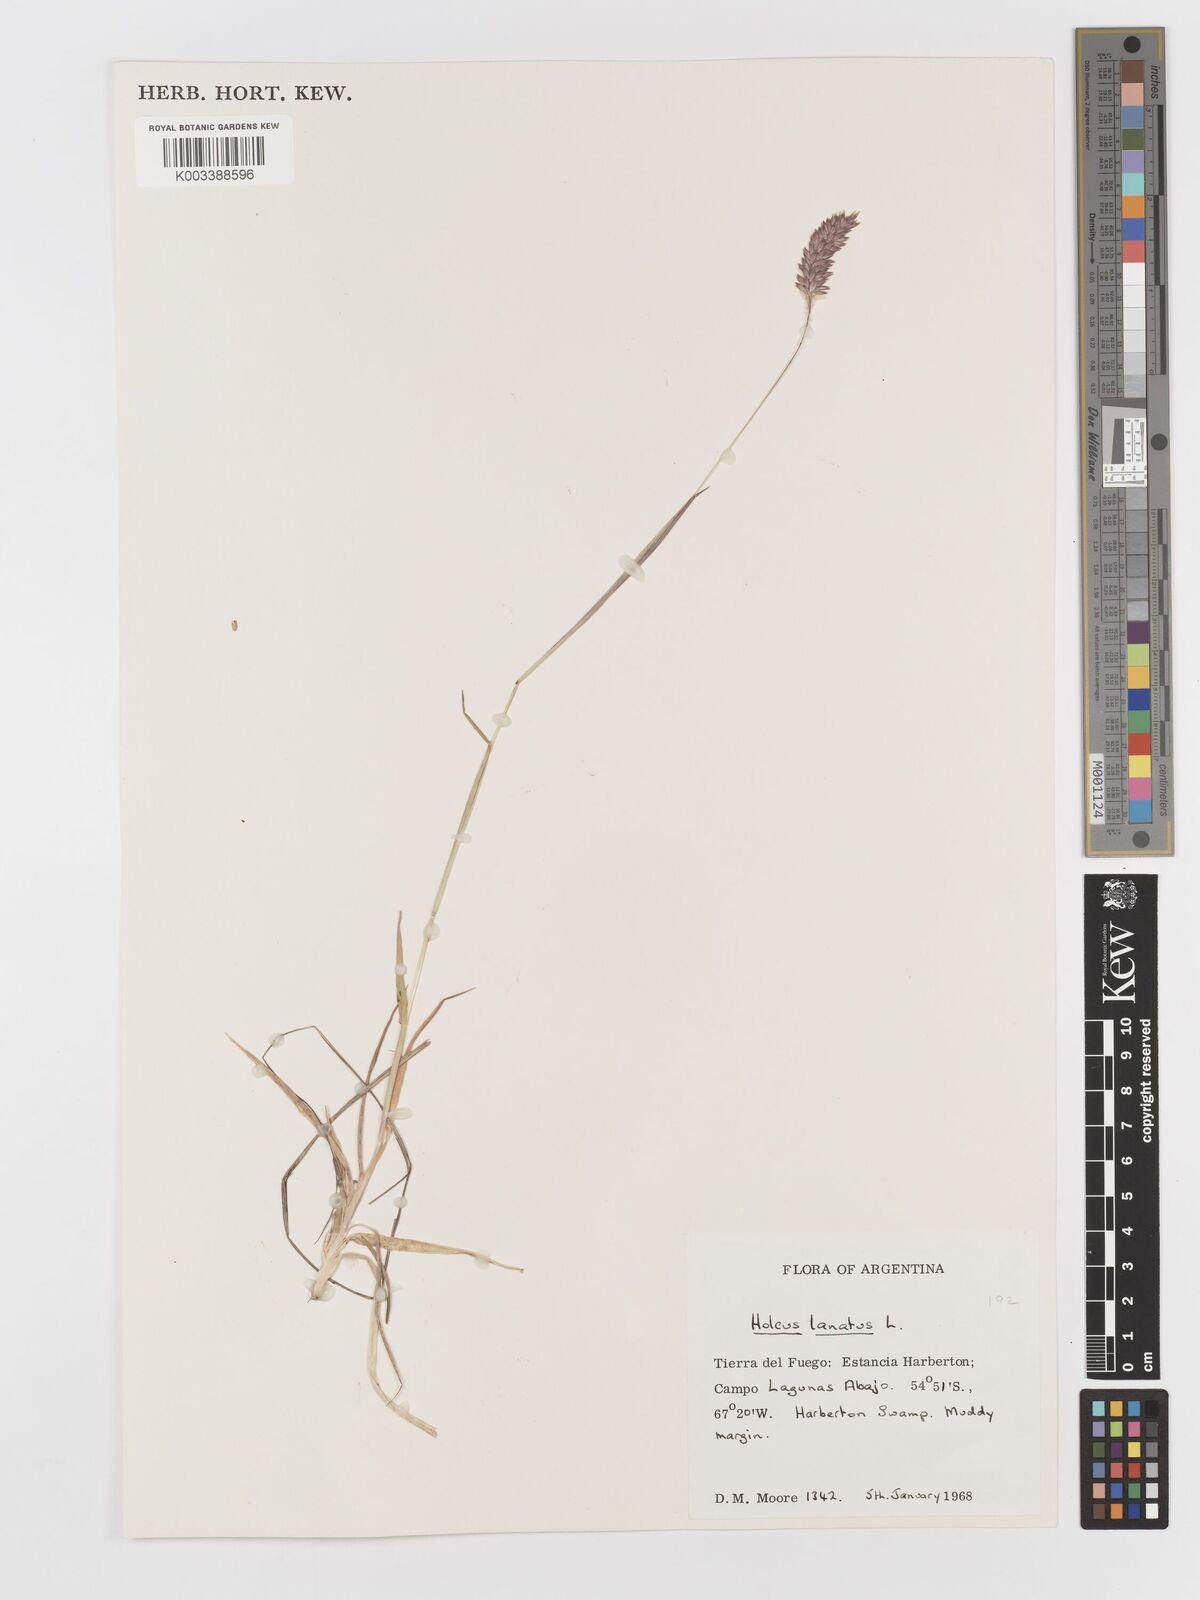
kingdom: Plantae
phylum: Tracheophyta
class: Liliopsida
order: Poales
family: Poaceae
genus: Holcus
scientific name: Holcus lanatus
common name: Yorkshire-fog
